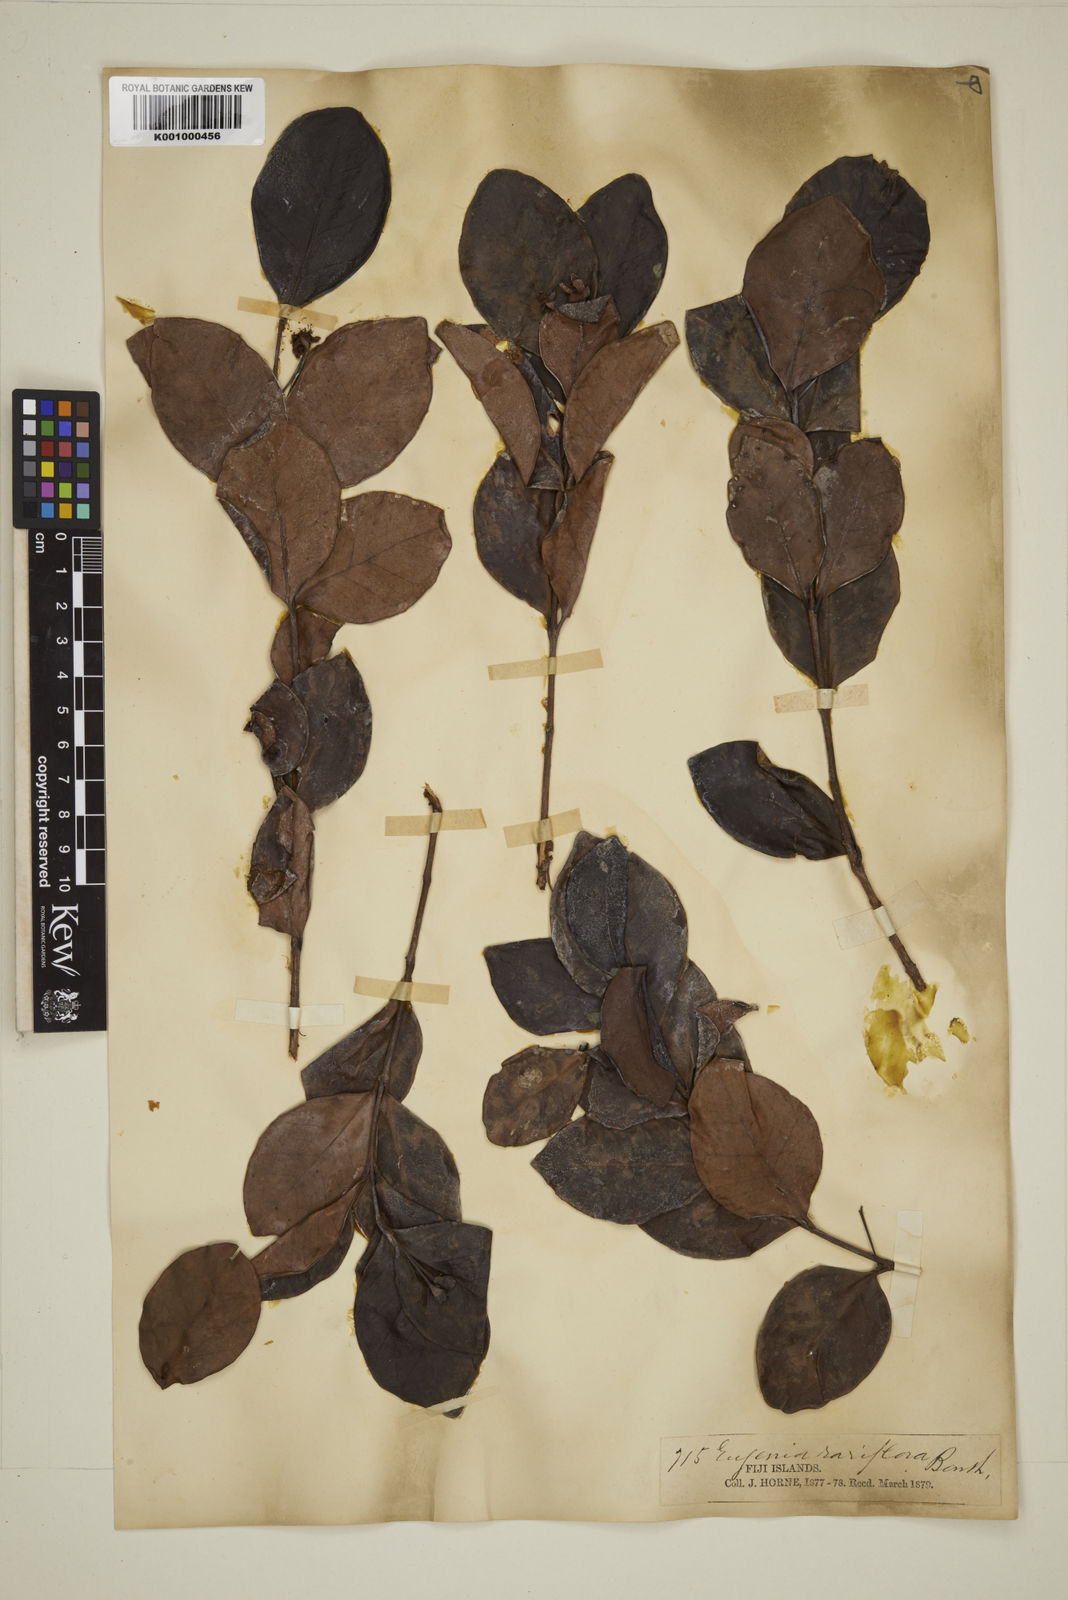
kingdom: Plantae
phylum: Tracheophyta
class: Magnoliopsida
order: Myrtales
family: Myrtaceae
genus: Eugenia
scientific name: Eugenia reinwardtiana
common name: Cedar bay-cherry
